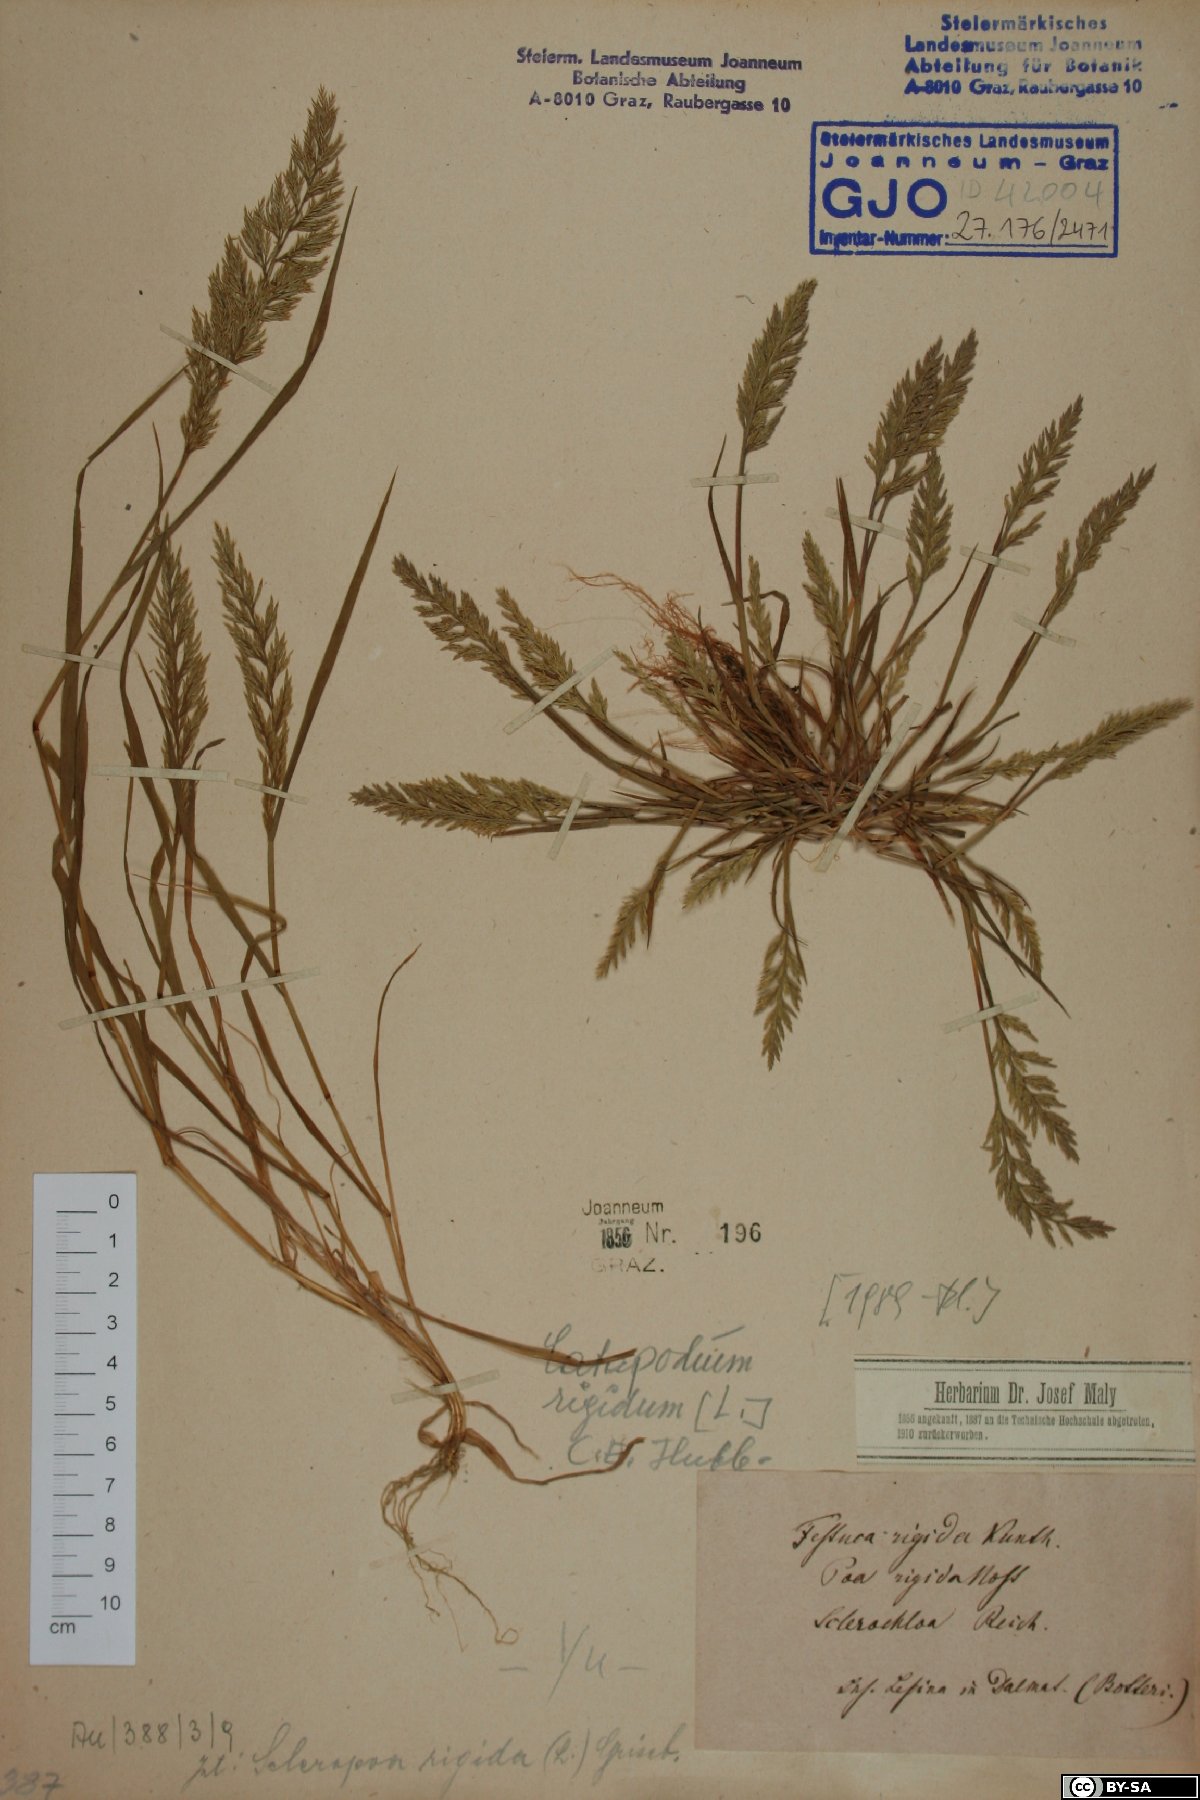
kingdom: Plantae
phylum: Tracheophyta
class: Liliopsida
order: Poales
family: Poaceae
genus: Catapodium
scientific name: Catapodium rigidum
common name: Fern-grass
